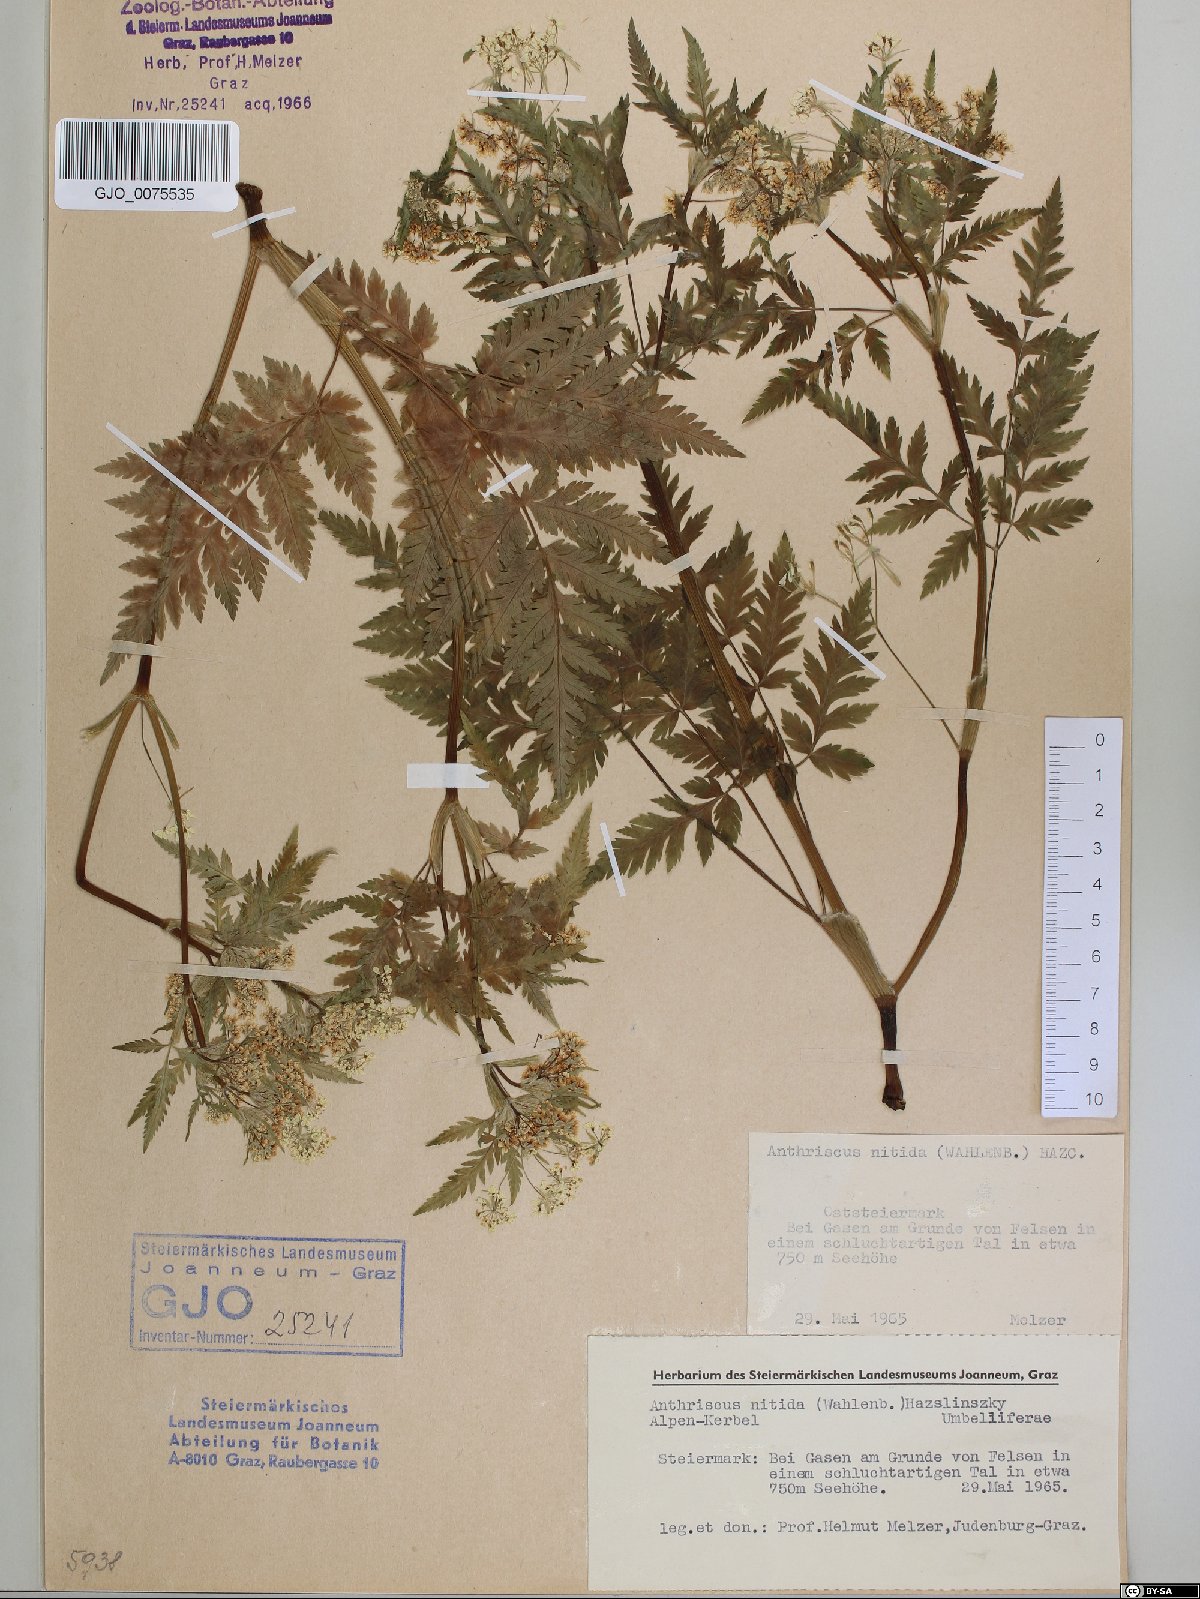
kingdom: Plantae
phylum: Tracheophyta
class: Magnoliopsida
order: Apiales
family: Apiaceae
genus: Anthriscus
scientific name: Anthriscus nitida
